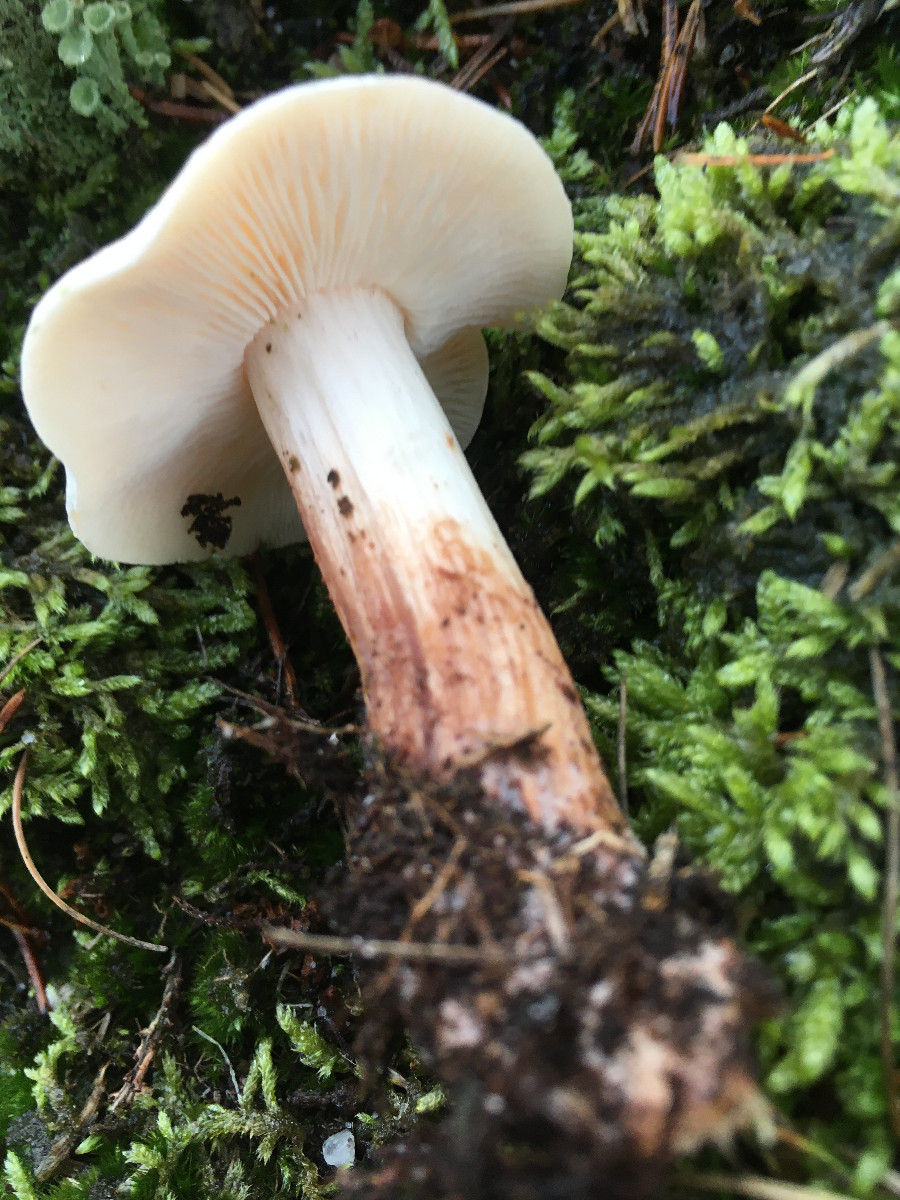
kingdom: Fungi
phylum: Basidiomycota
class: Agaricomycetes
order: Agaricales
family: Omphalotaceae
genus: Rhodocollybia
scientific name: Rhodocollybia maculata
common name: plettet fladhat
